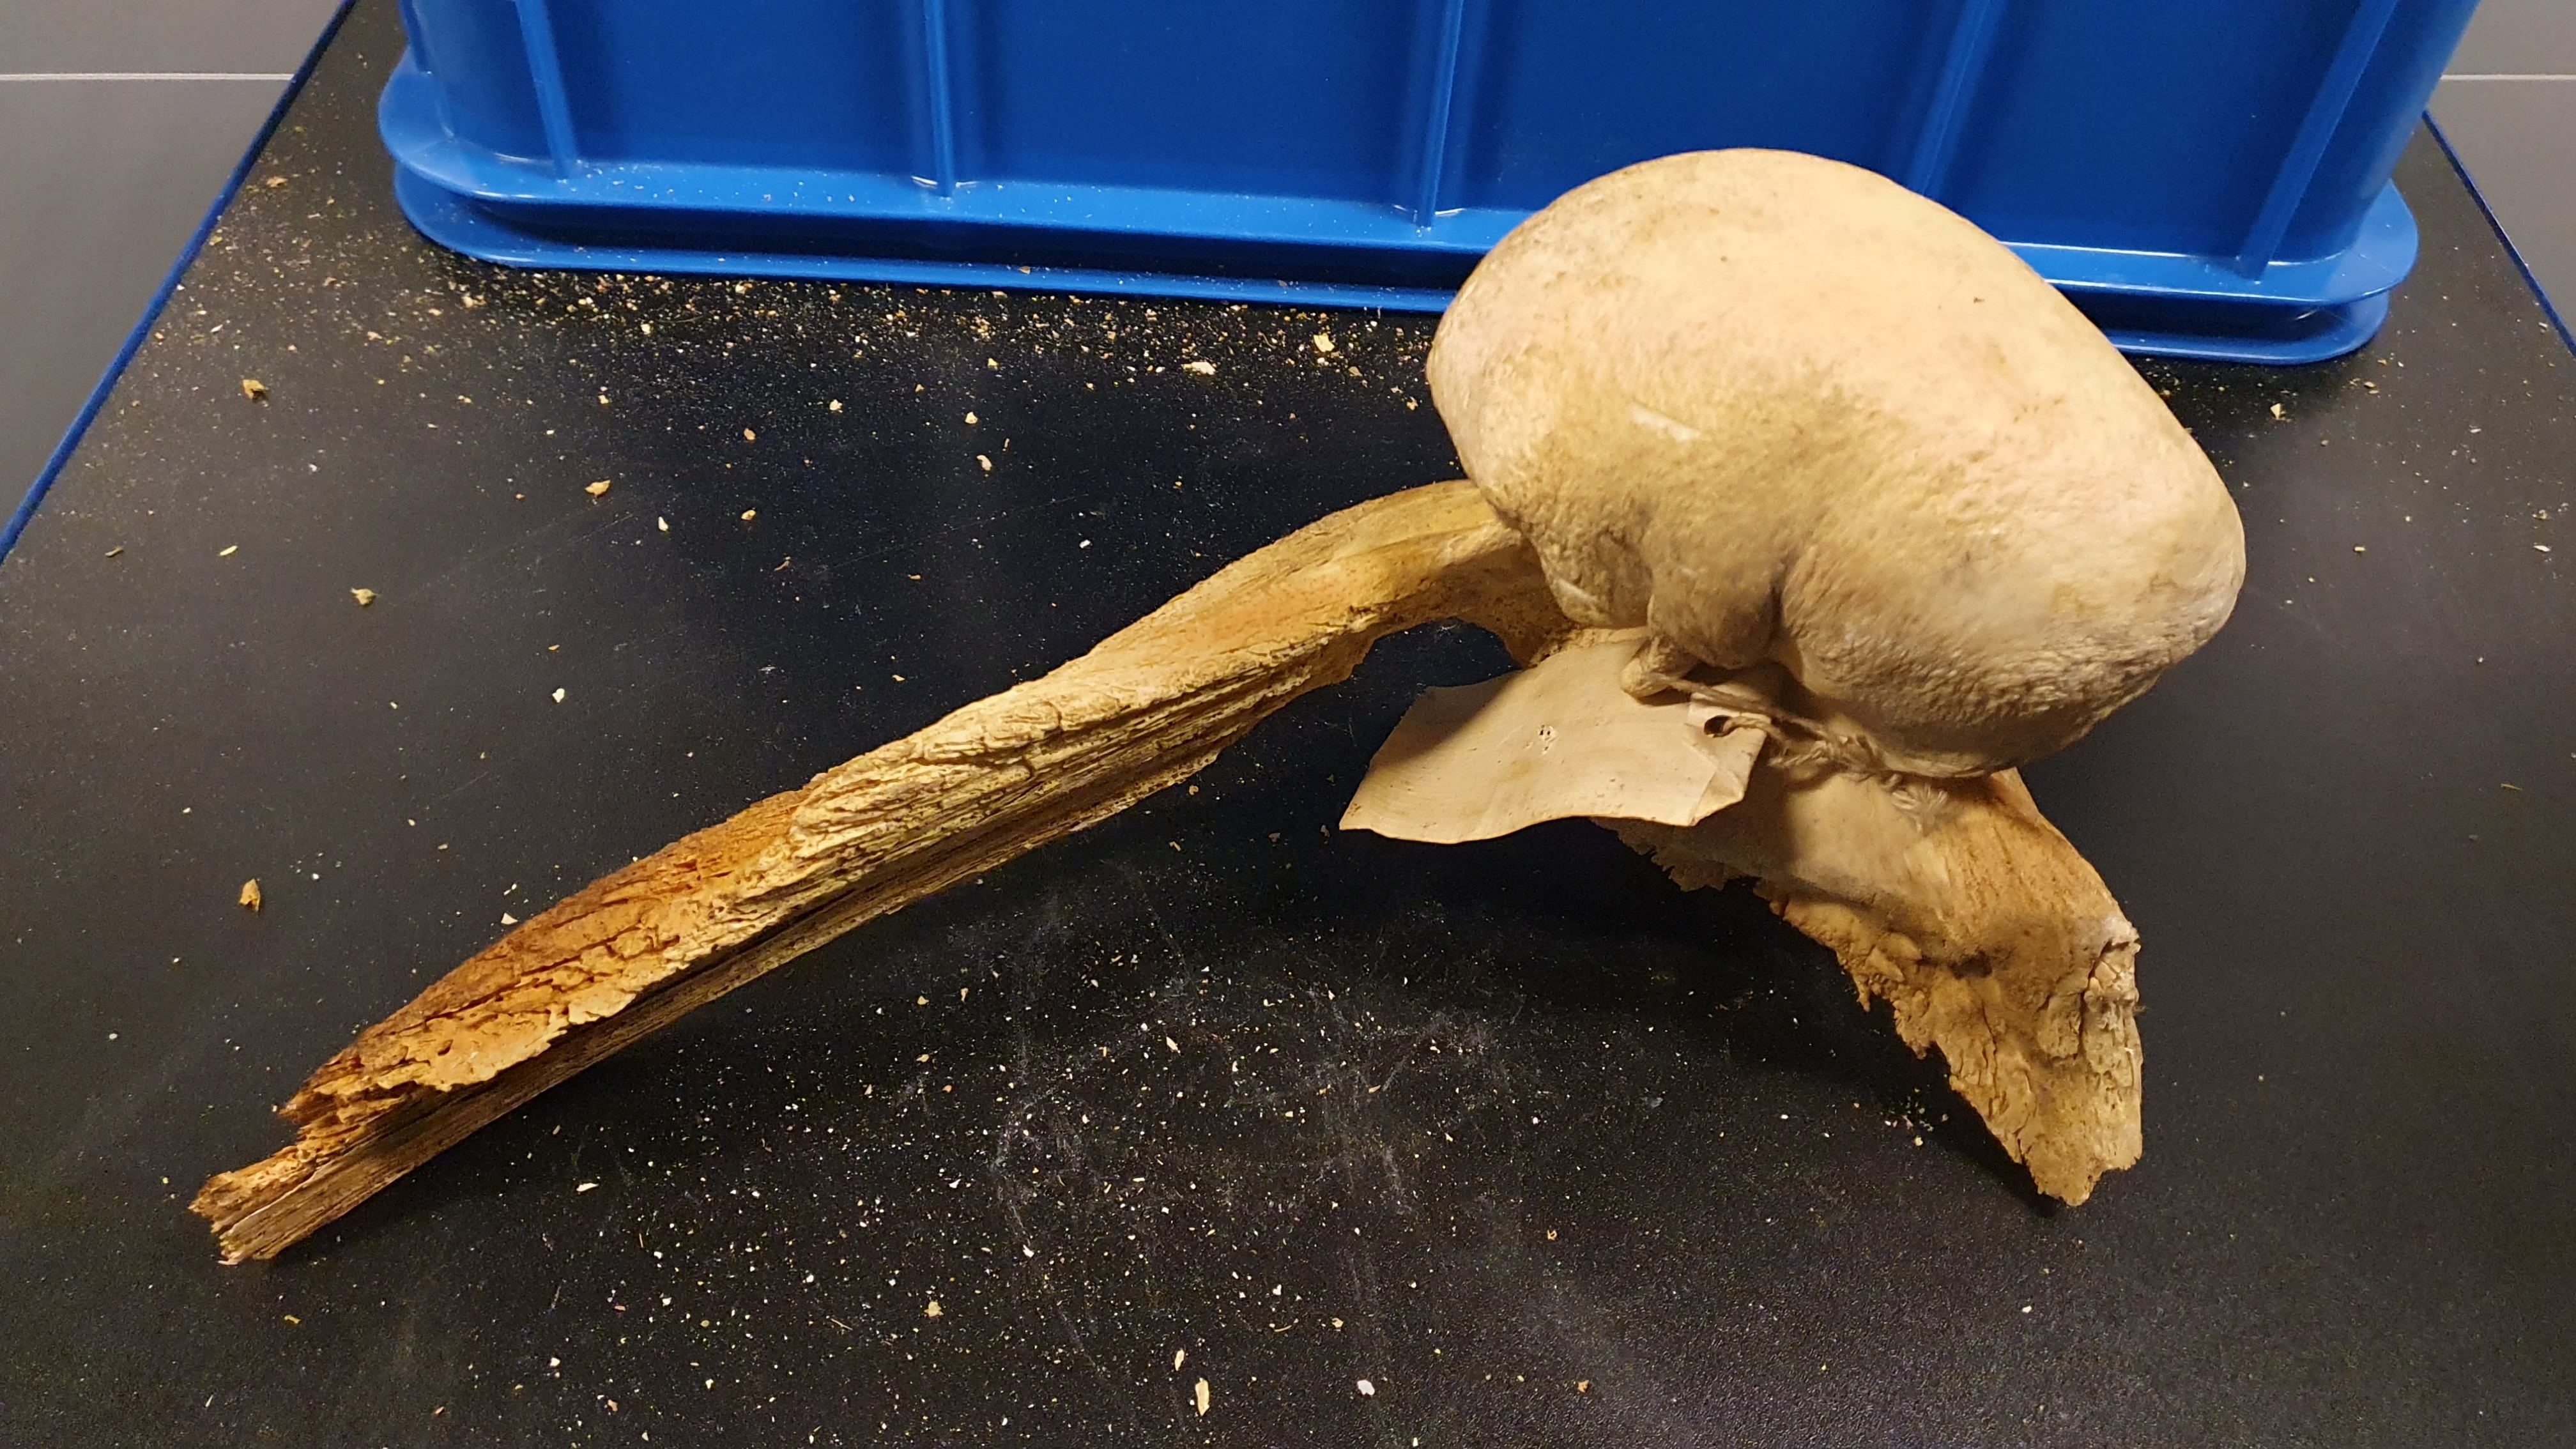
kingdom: Animalia
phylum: Chordata
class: Mammalia
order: Cetacea
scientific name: Cetacea
